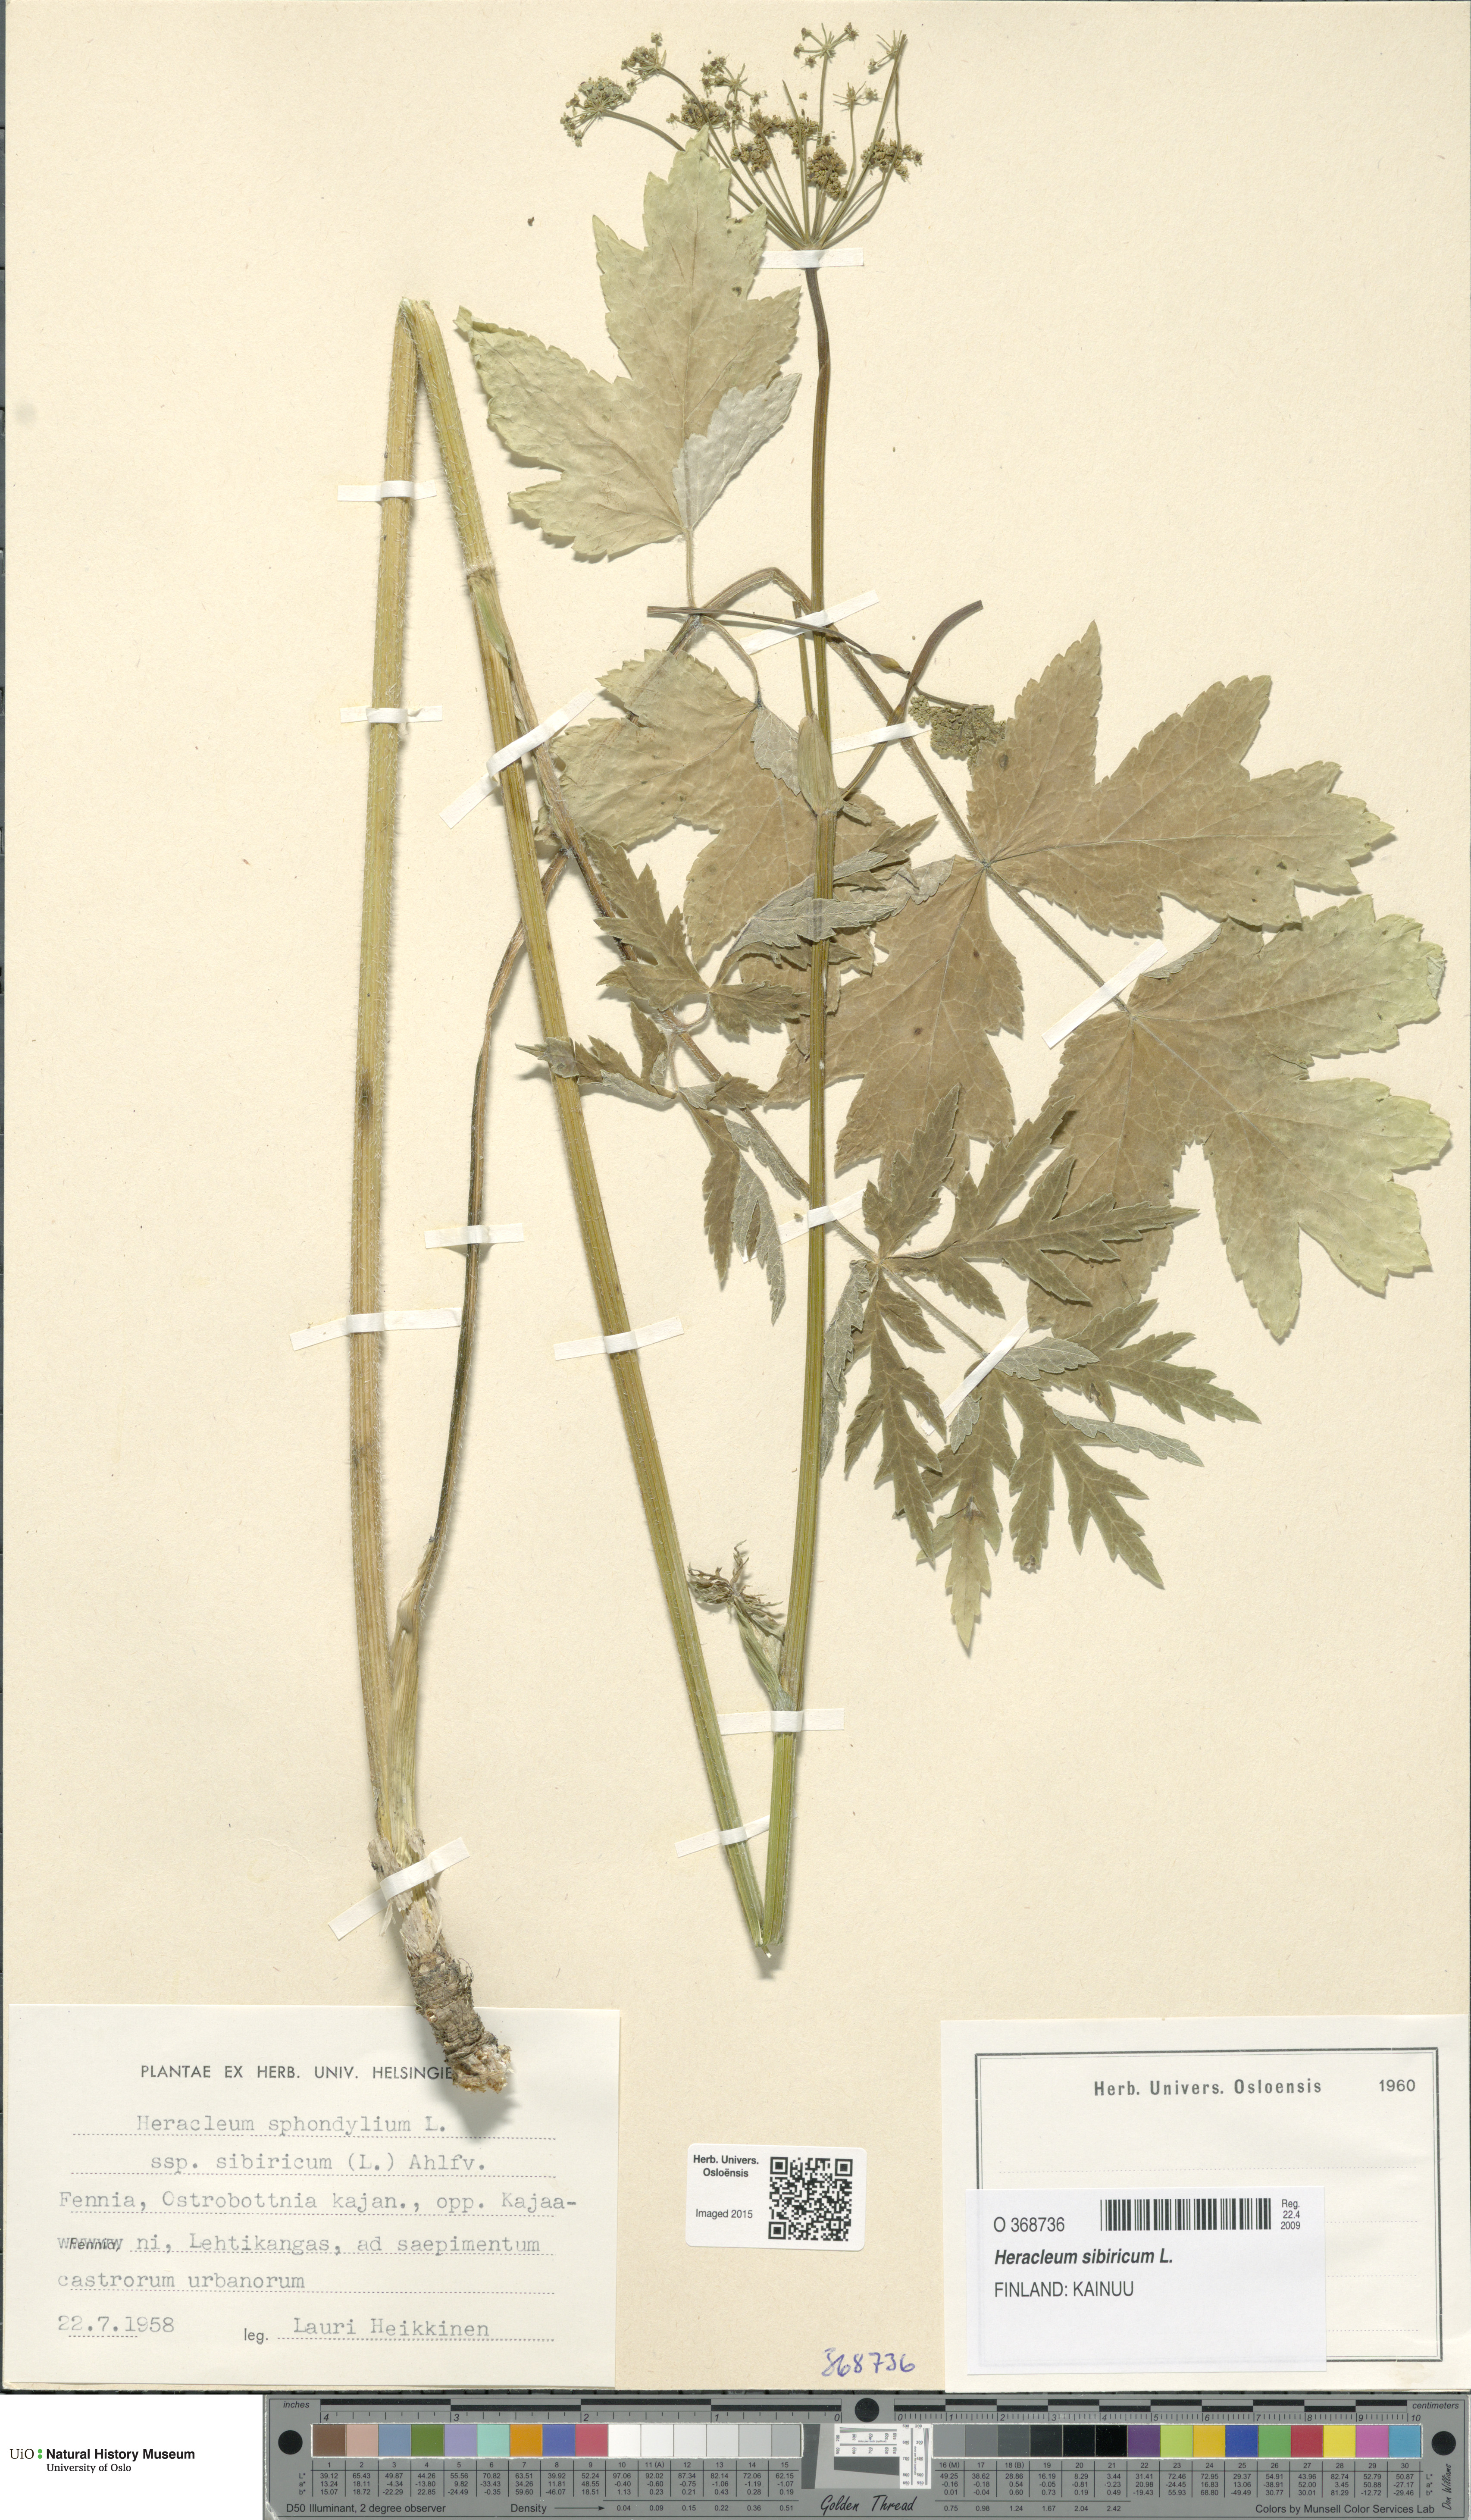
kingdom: Plantae
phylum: Tracheophyta
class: Magnoliopsida
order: Apiales
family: Apiaceae
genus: Heracleum
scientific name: Heracleum sphondylium
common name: Hogweed
